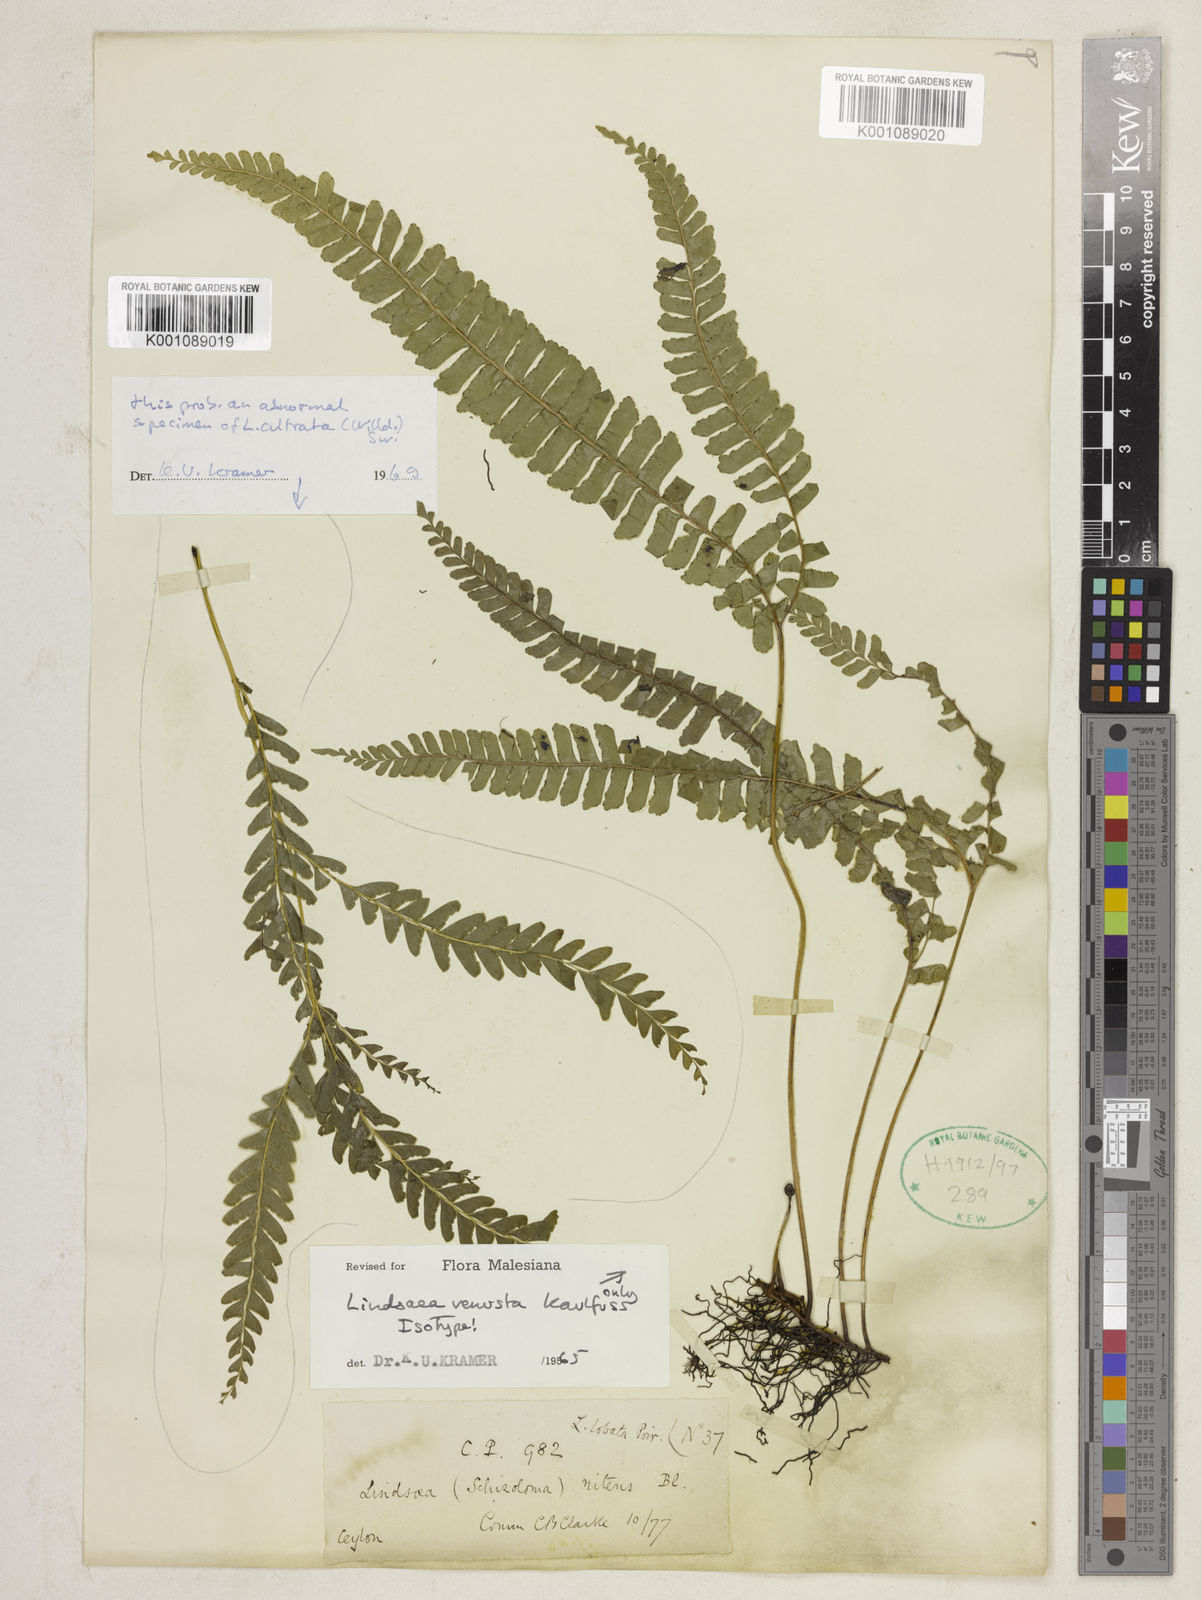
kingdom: Plantae
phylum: Tracheophyta
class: Polypodiopsida
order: Polypodiales
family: Lindsaeaceae
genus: Lindsaea
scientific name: Lindsaea venusta
